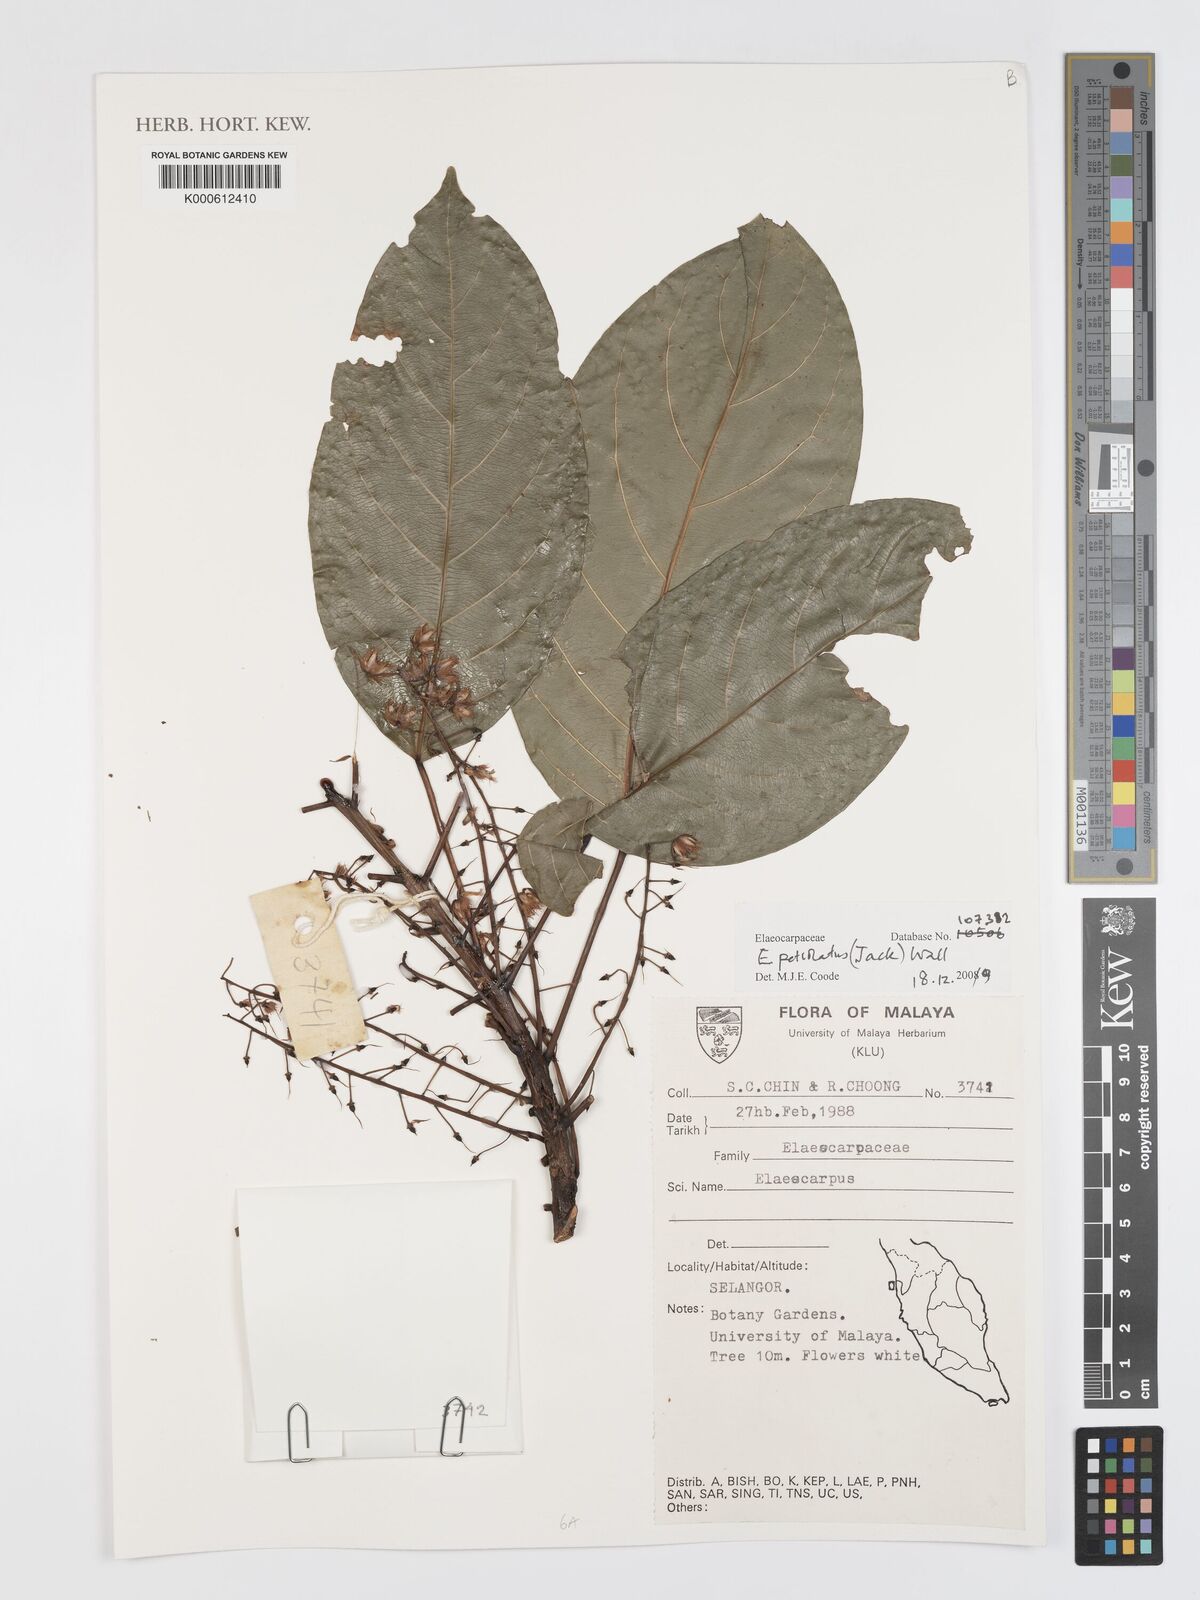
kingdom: Plantae
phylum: Tracheophyta
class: Magnoliopsida
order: Oxalidales
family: Elaeocarpaceae
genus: Elaeocarpus
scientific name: Elaeocarpus
